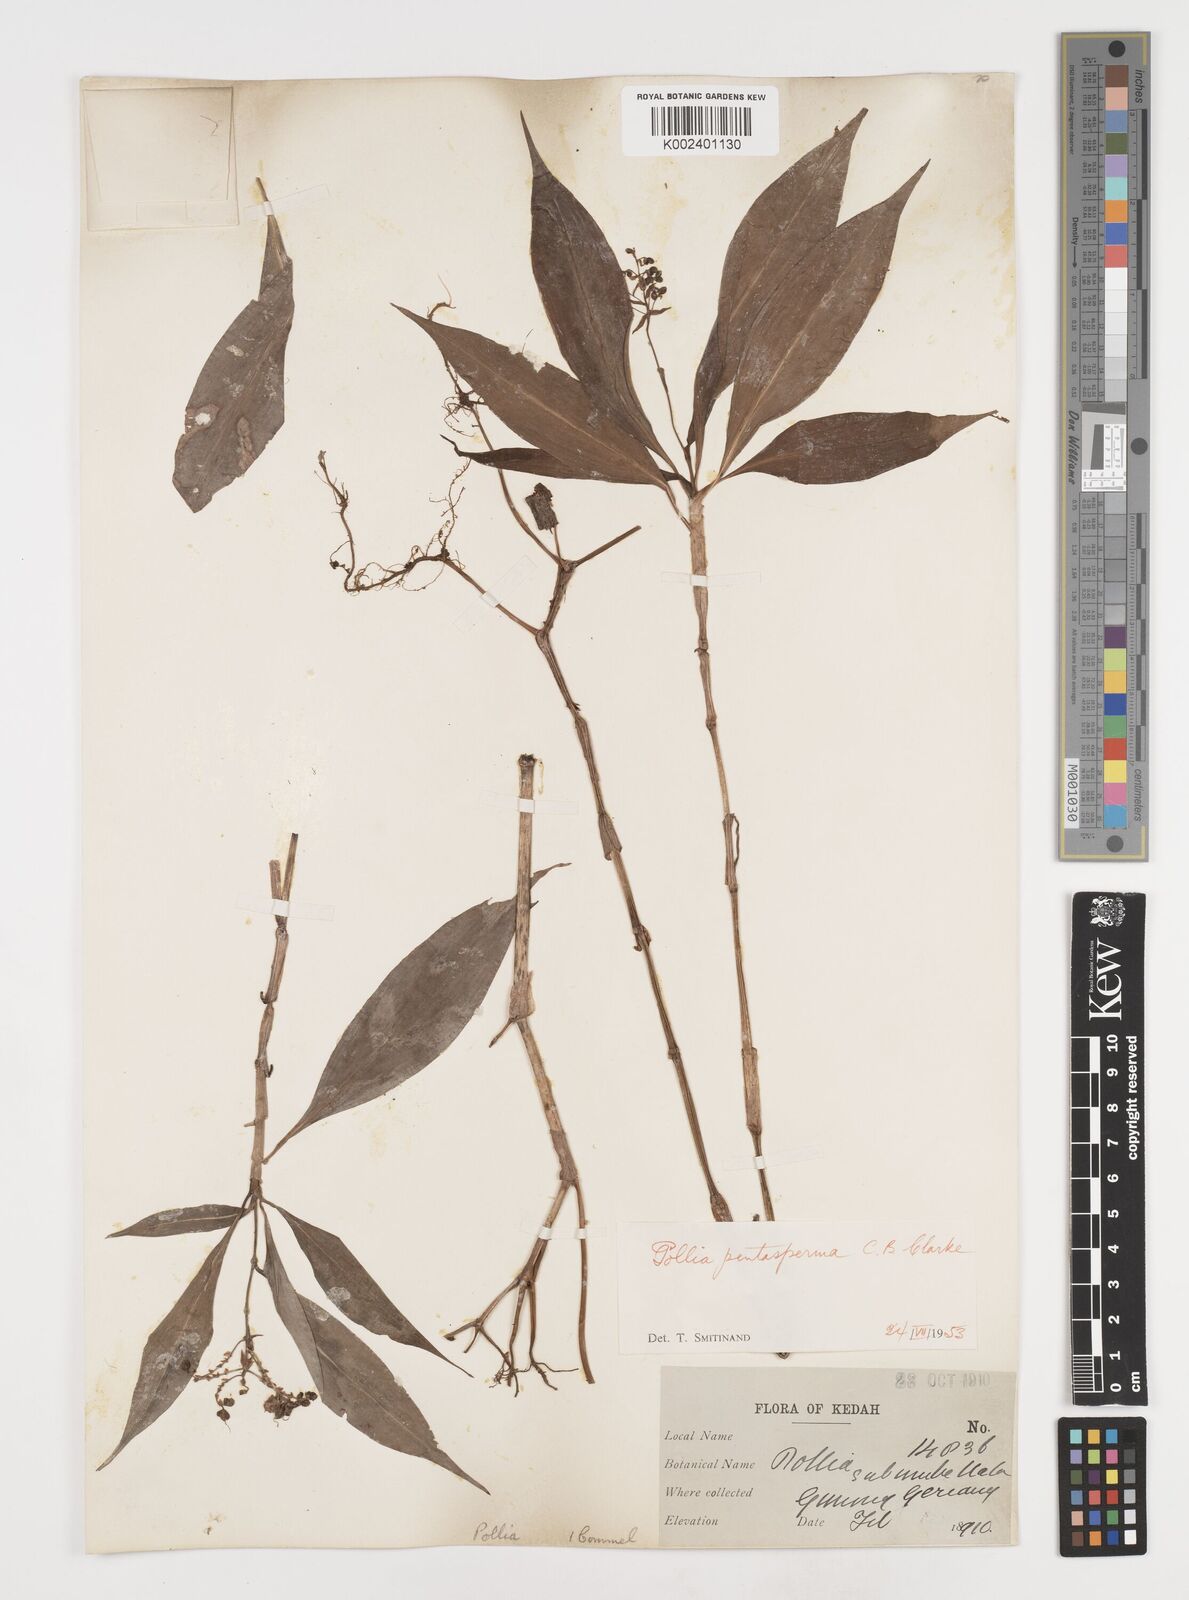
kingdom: Plantae
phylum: Tracheophyta
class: Liliopsida
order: Commelinales
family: Commelinaceae
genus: Pollia
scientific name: Pollia subumbellata
